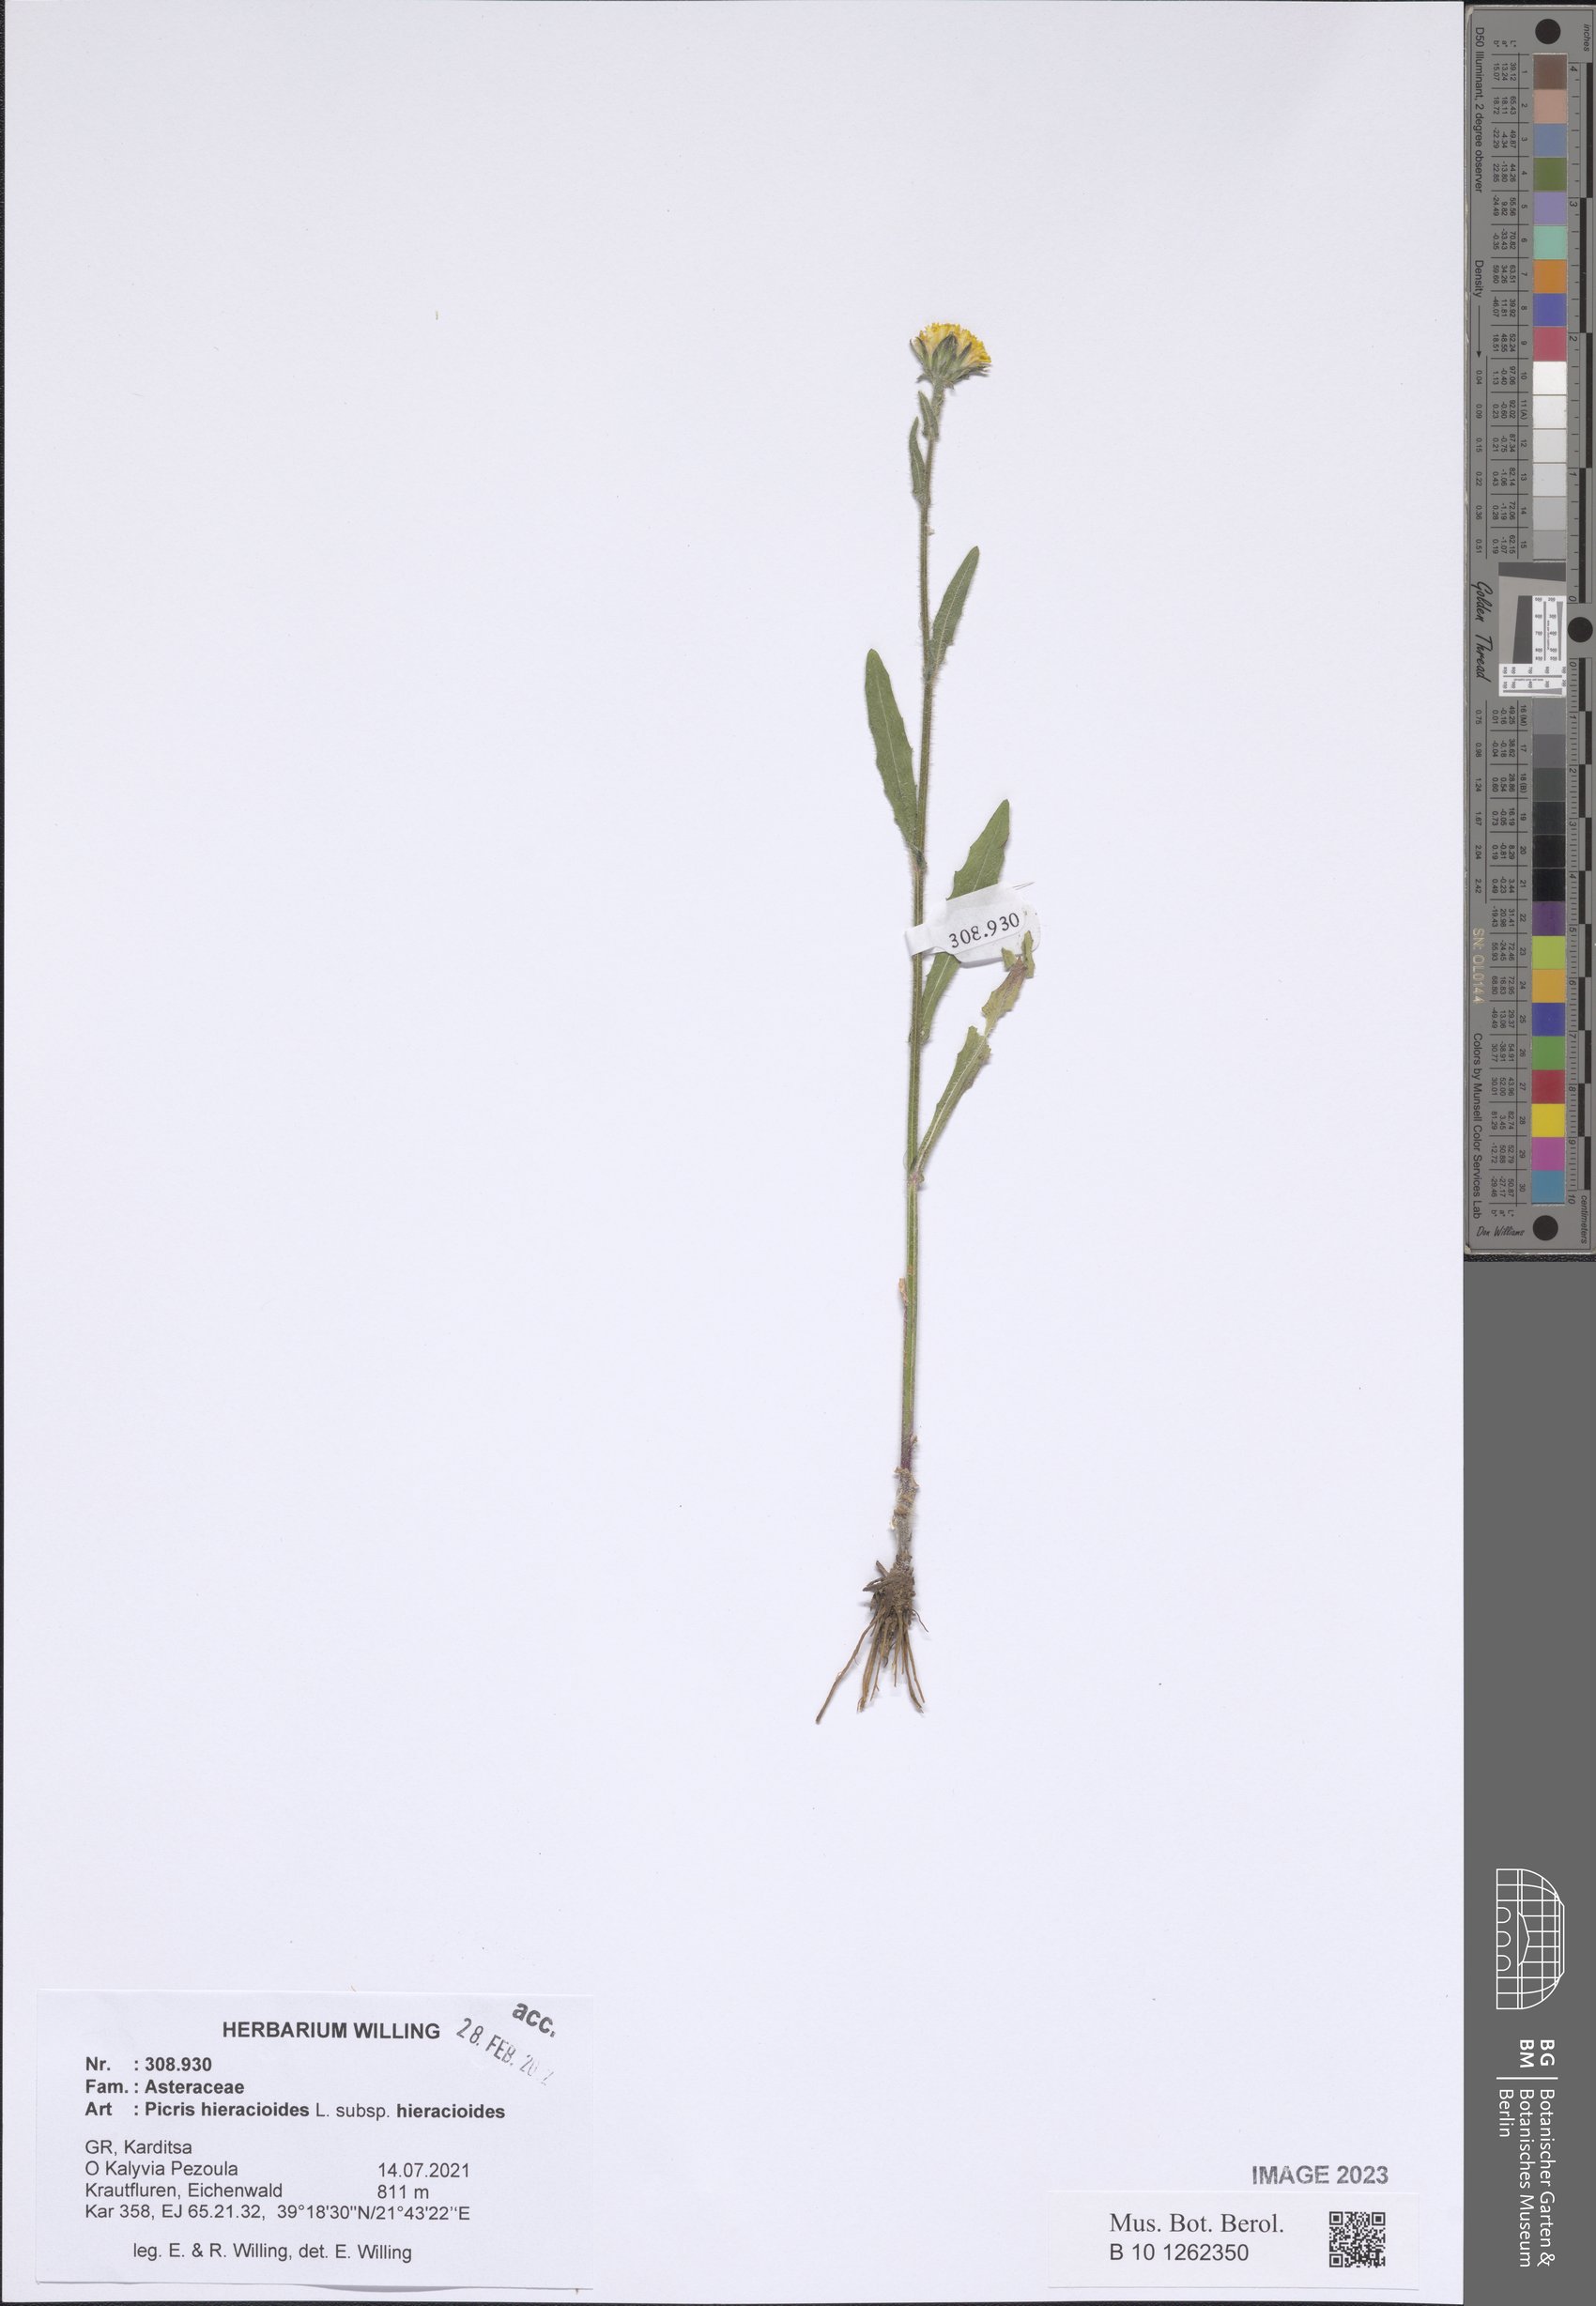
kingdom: Plantae
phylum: Tracheophyta
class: Magnoliopsida
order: Asterales
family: Asteraceae
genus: Picris
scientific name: Picris hieracioides
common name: Hawkweed oxtongue
